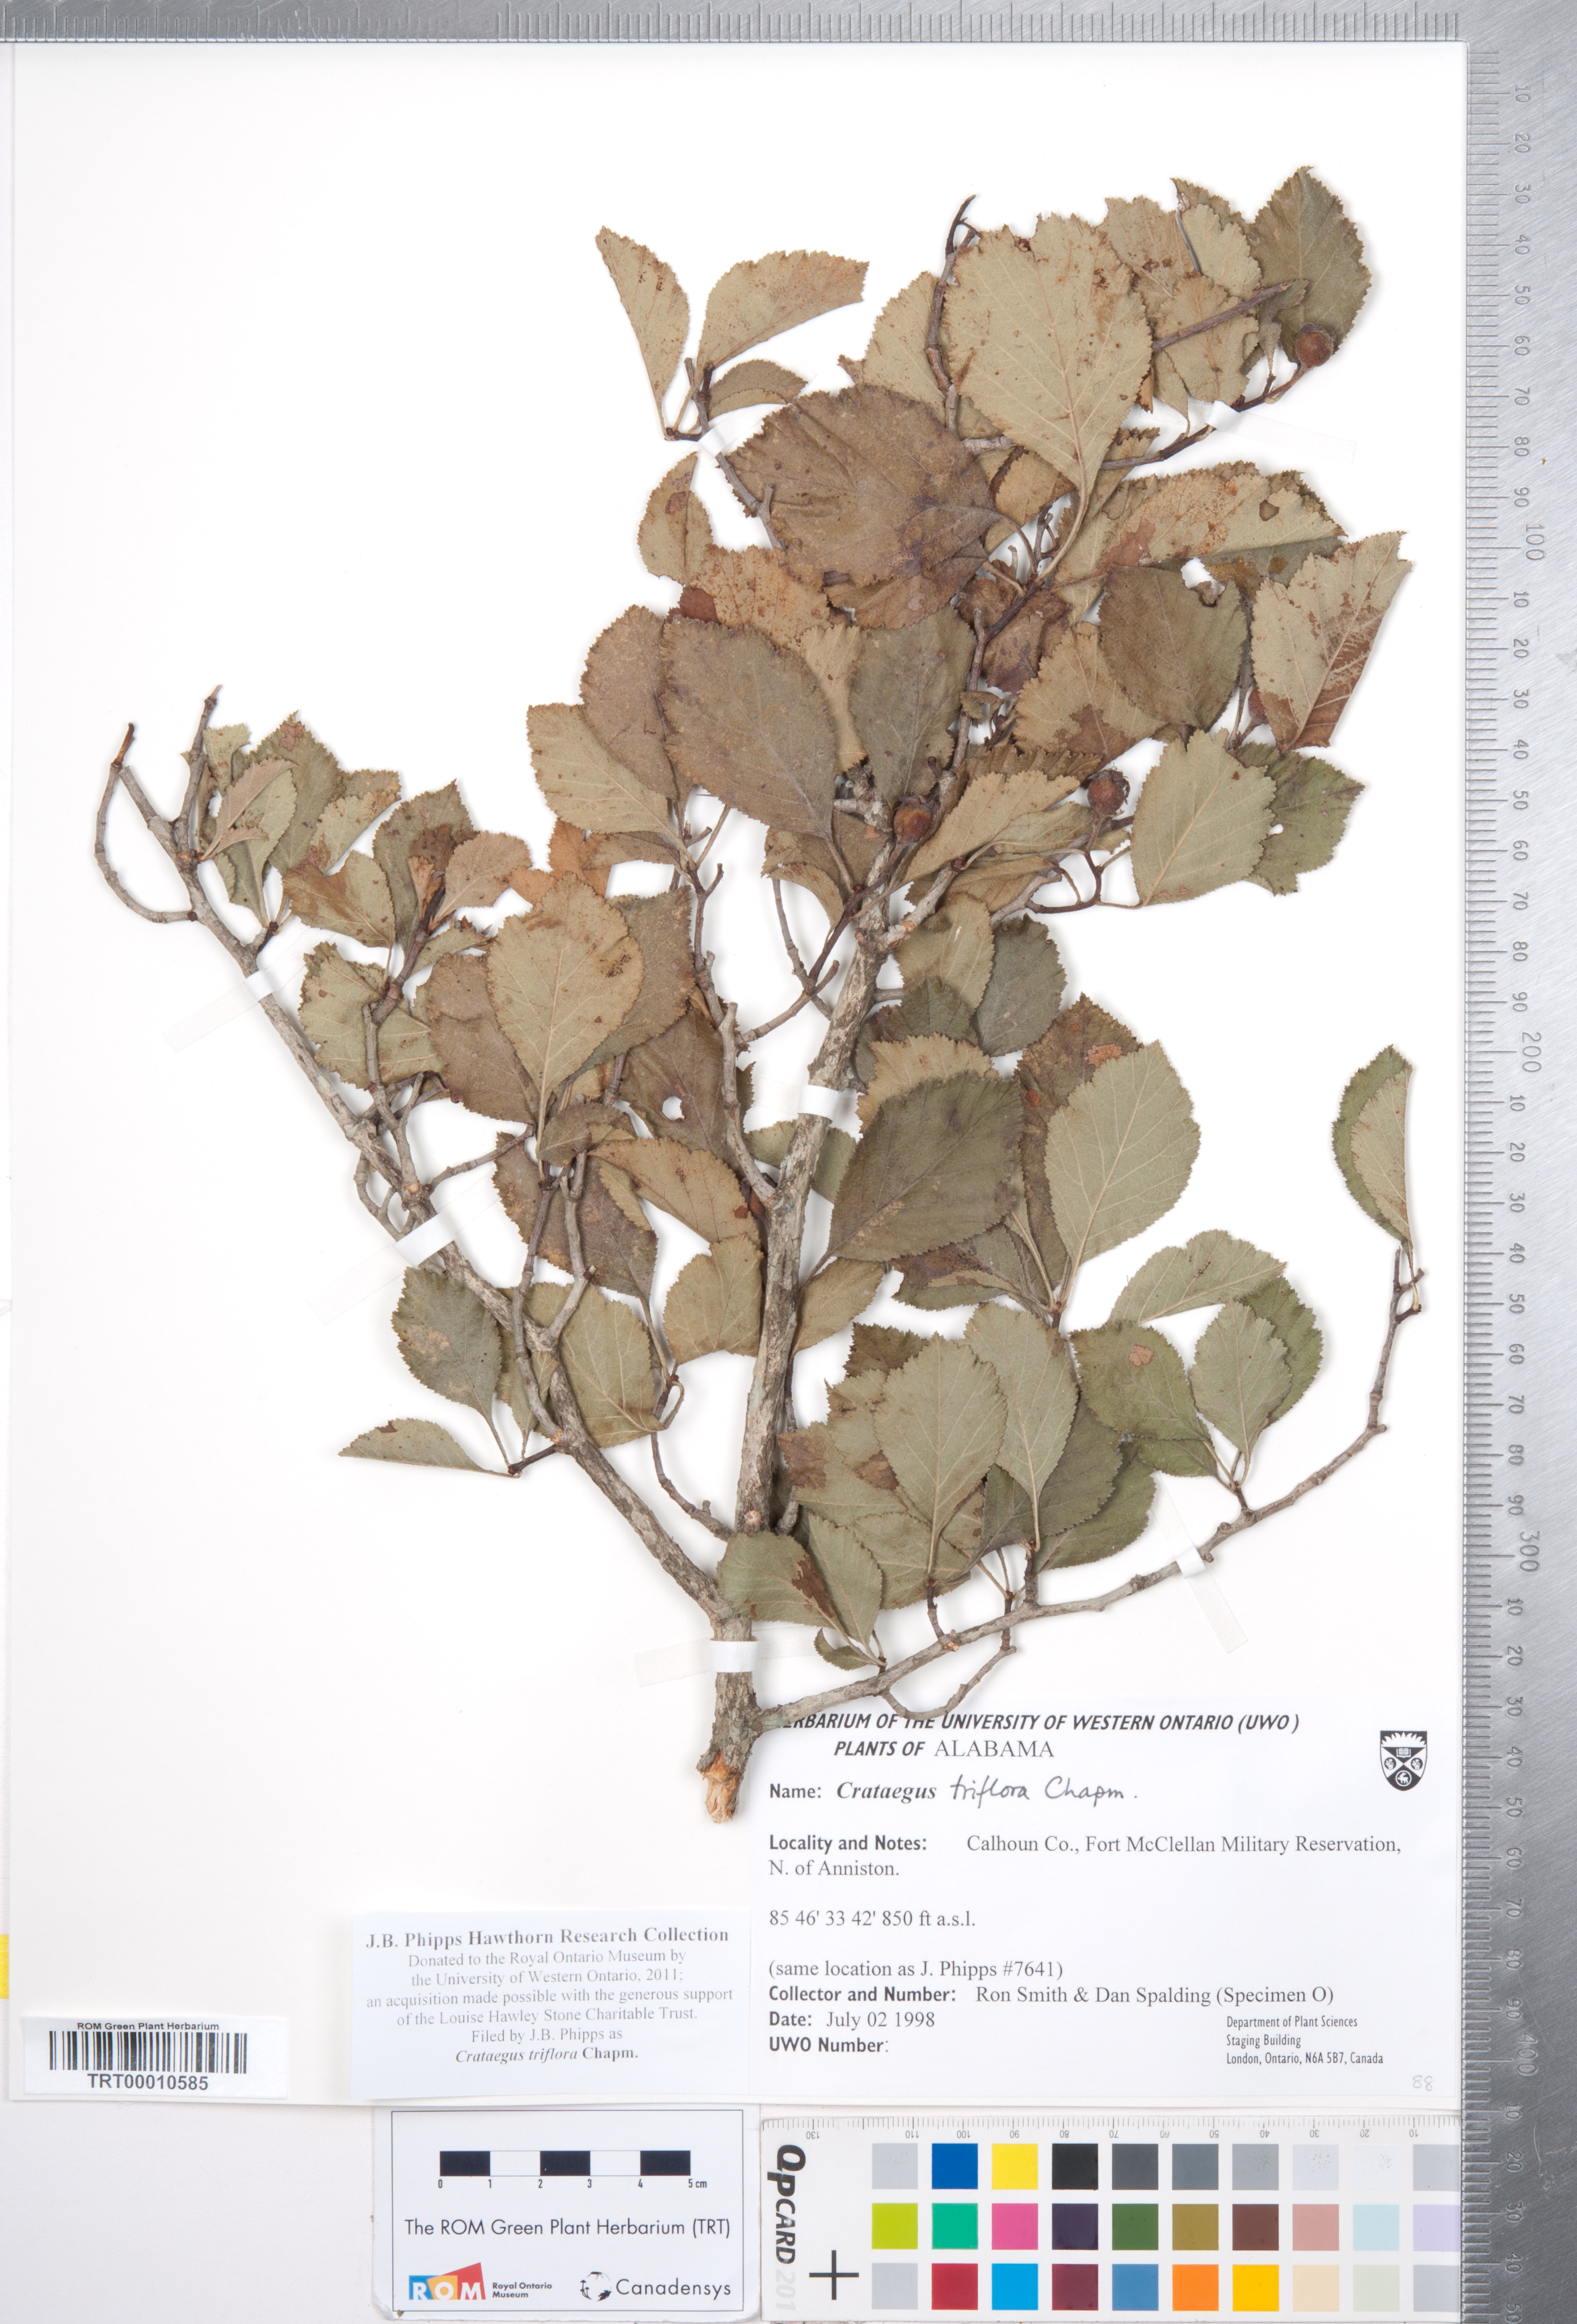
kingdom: Plantae
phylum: Tracheophyta
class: Magnoliopsida
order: Rosales
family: Rosaceae
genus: Crataegus
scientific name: Crataegus triflora
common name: Three-flower hawthorn
